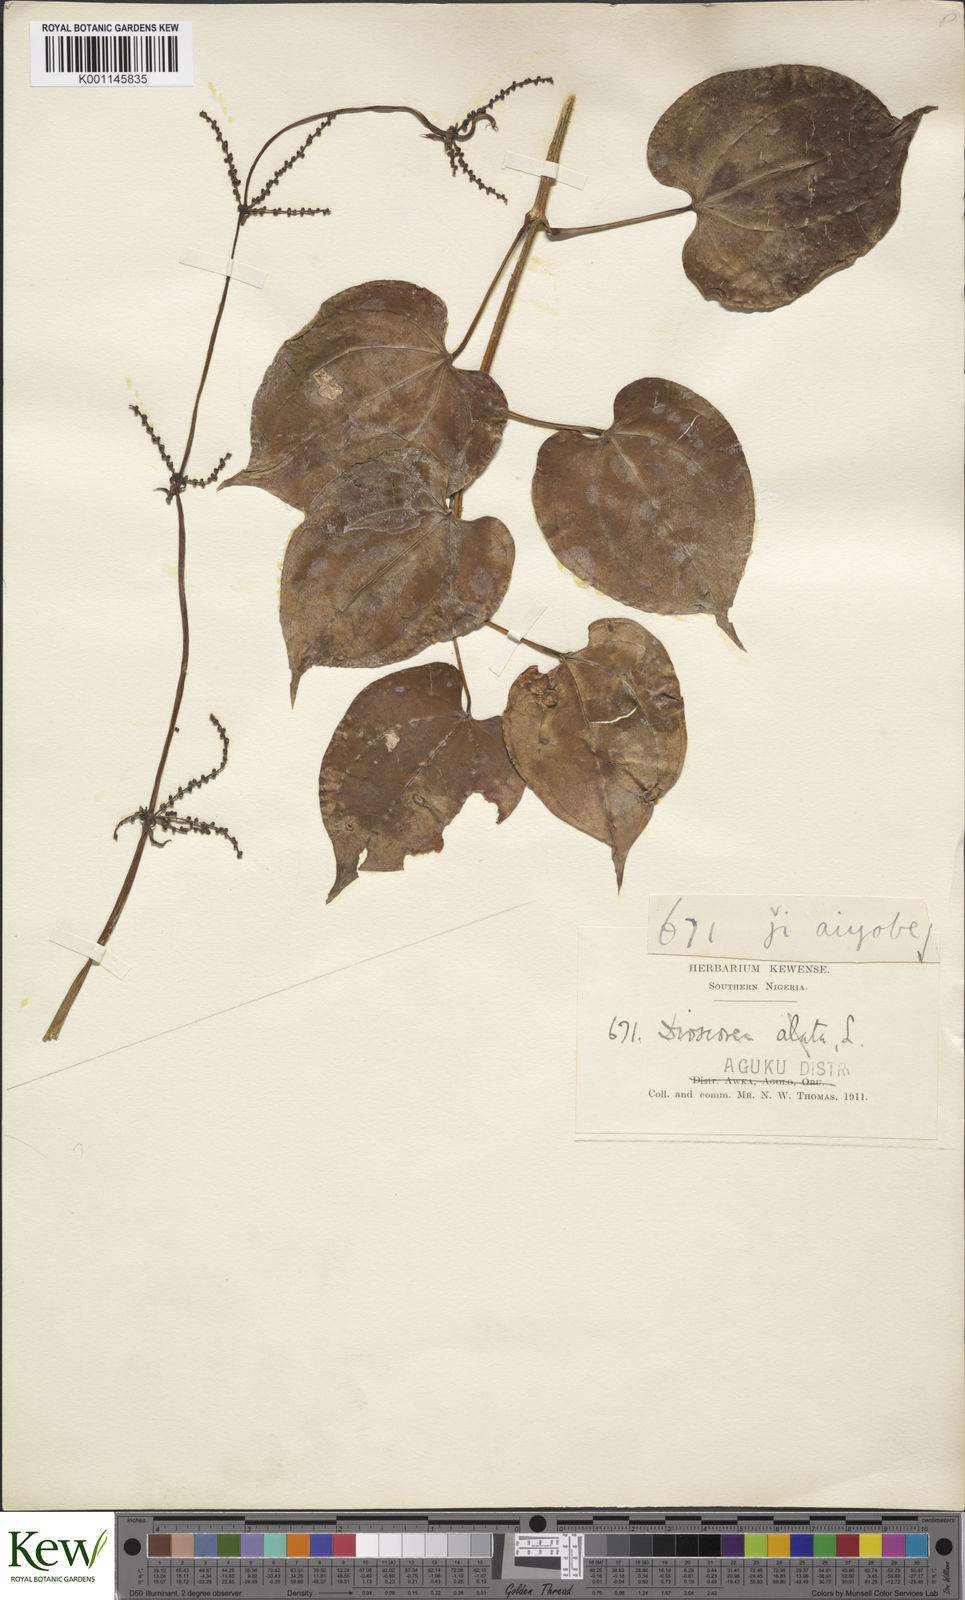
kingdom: Plantae
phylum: Tracheophyta
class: Liliopsida
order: Dioscoreales
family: Dioscoreaceae
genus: Dioscorea
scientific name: Dioscorea cayenensis
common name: Attoto yam
